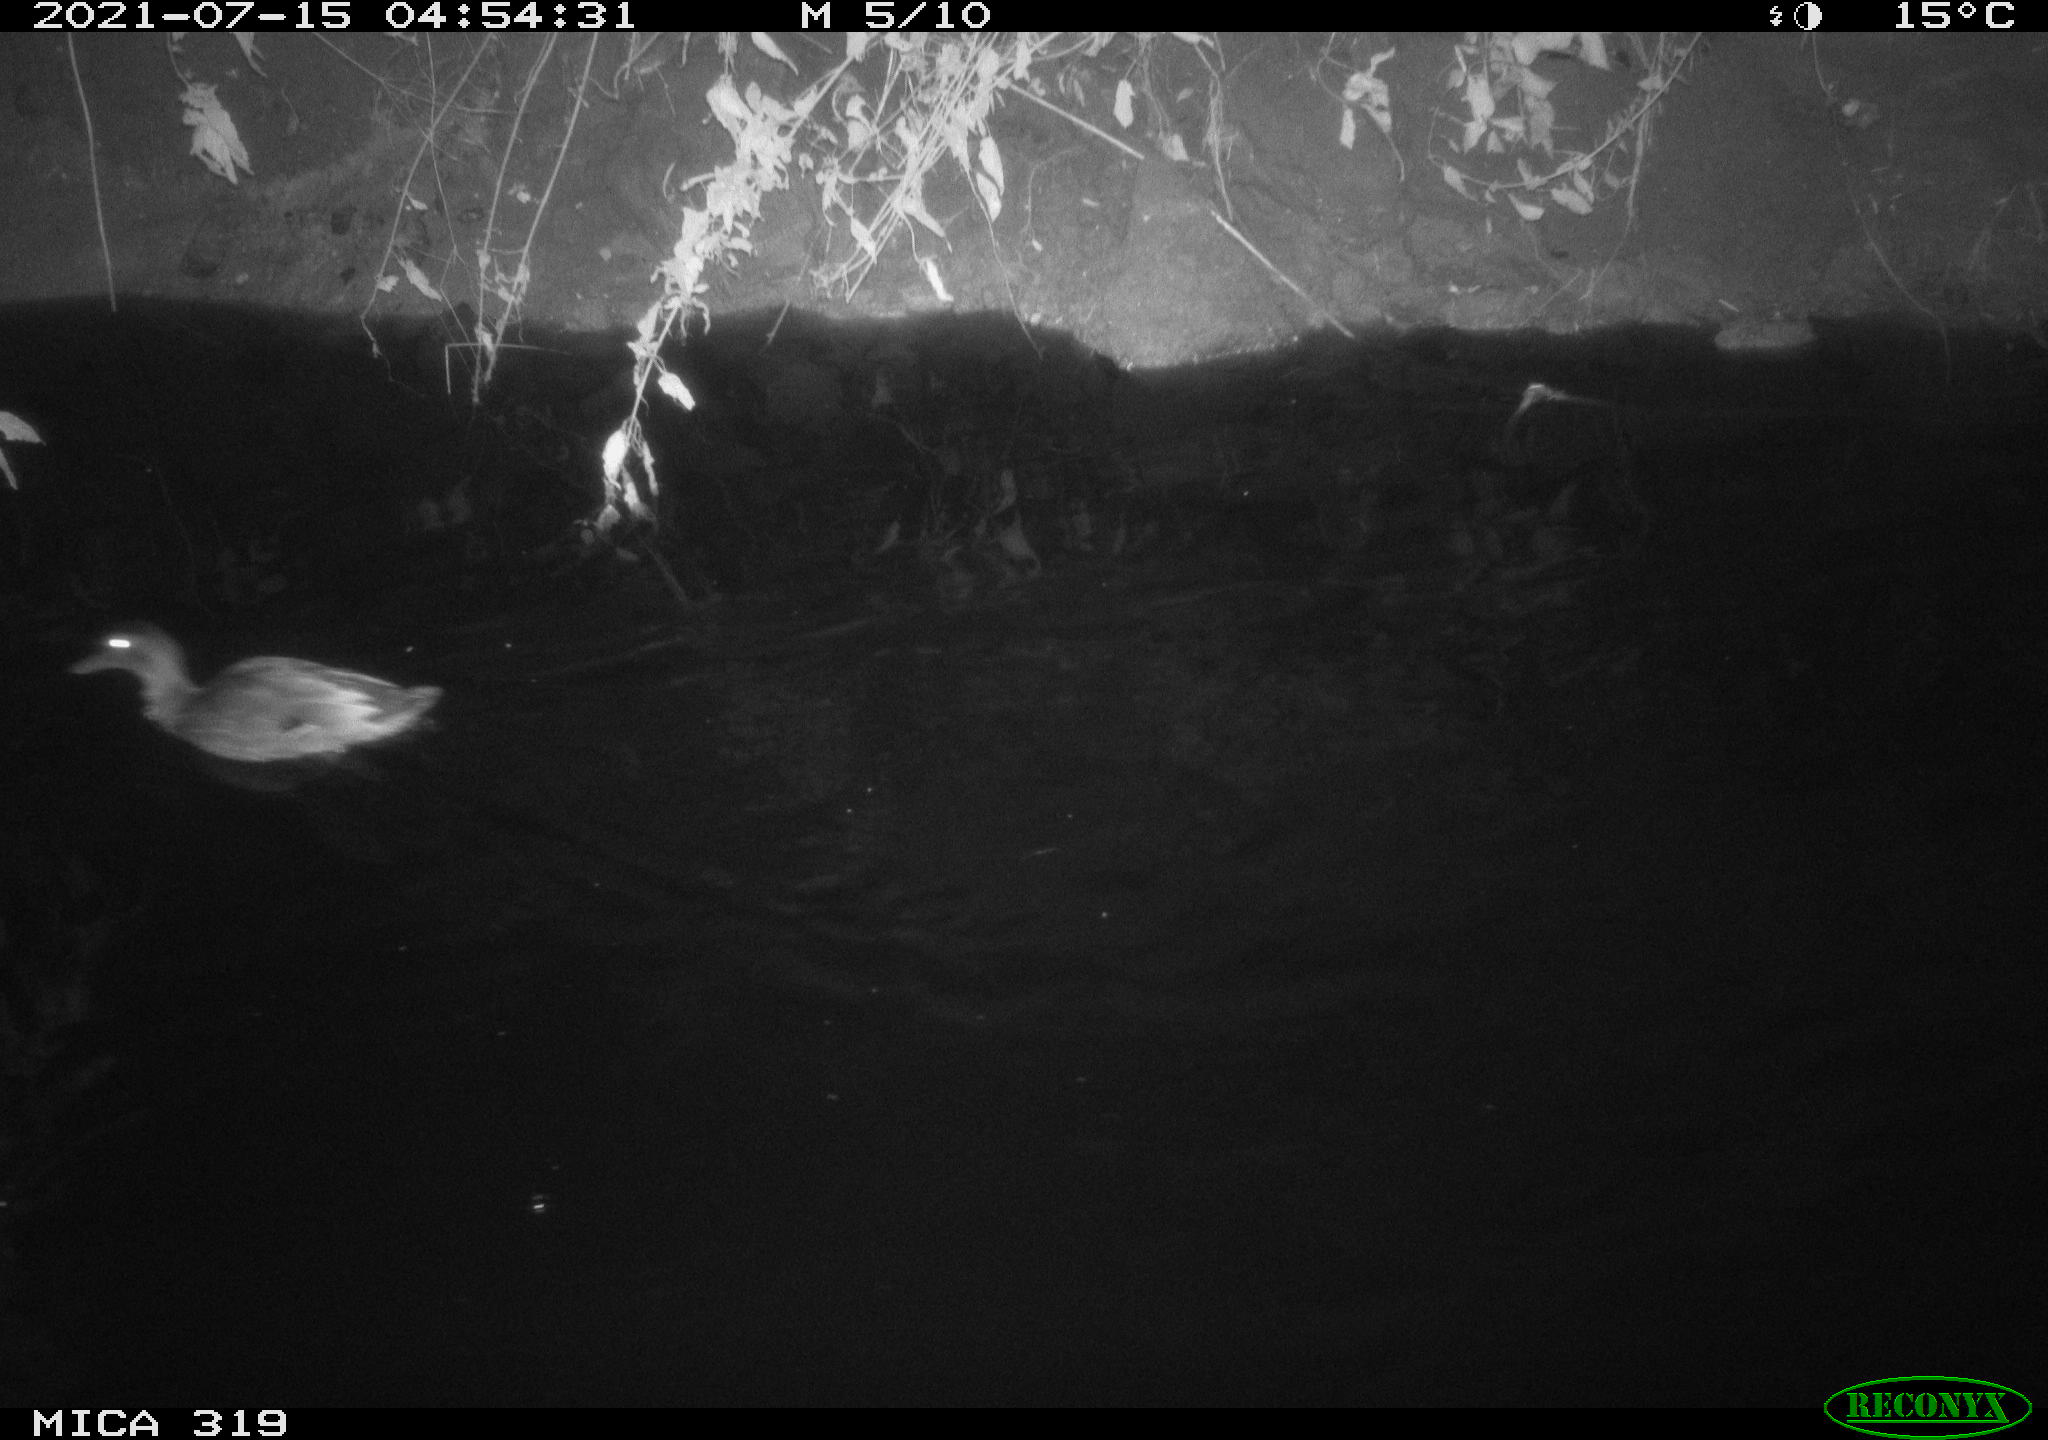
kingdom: Animalia
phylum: Chordata
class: Aves
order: Anseriformes
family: Anatidae
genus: Anas
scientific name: Anas platyrhynchos
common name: Mallard
